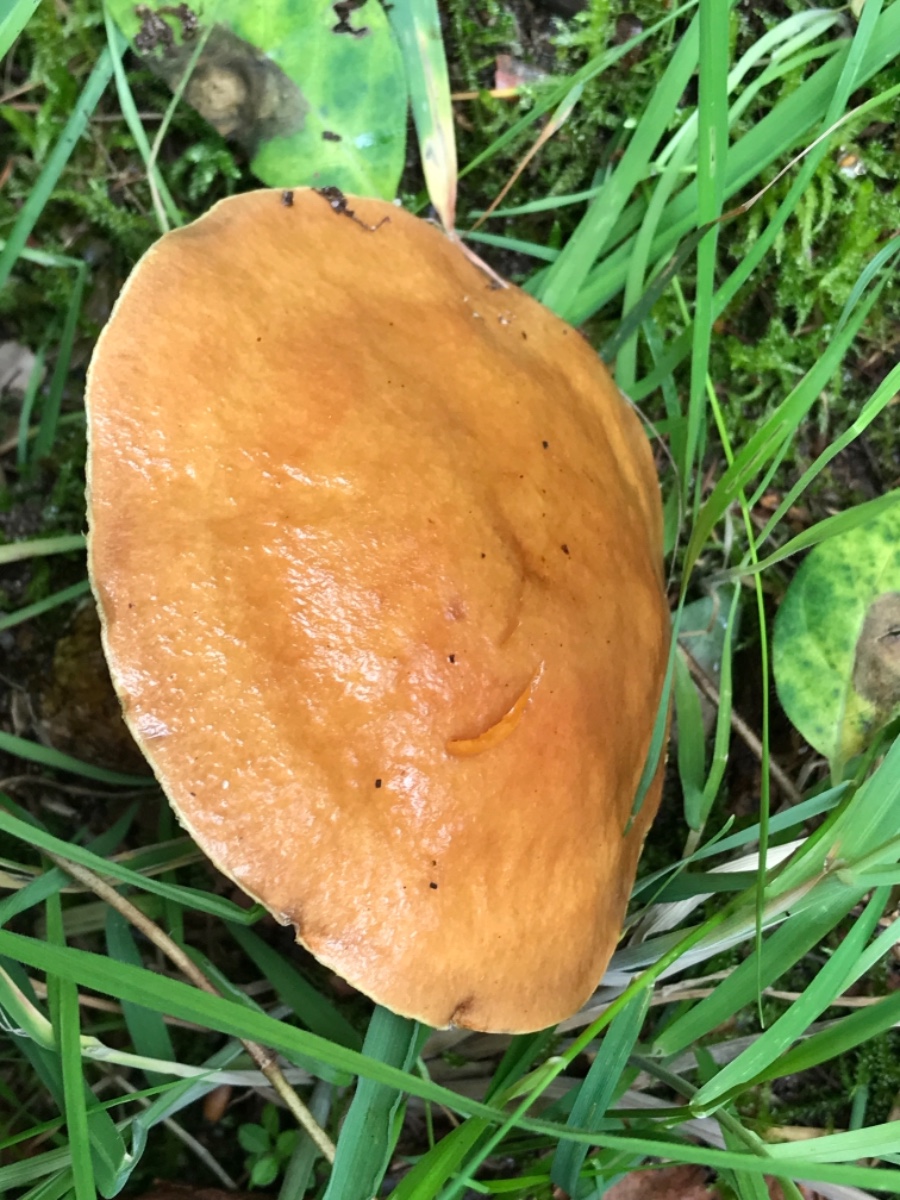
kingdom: Fungi
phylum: Basidiomycota
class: Agaricomycetes
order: Boletales
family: Suillaceae
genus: Suillus
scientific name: Suillus grevillei
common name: lærke-slimrørhat
